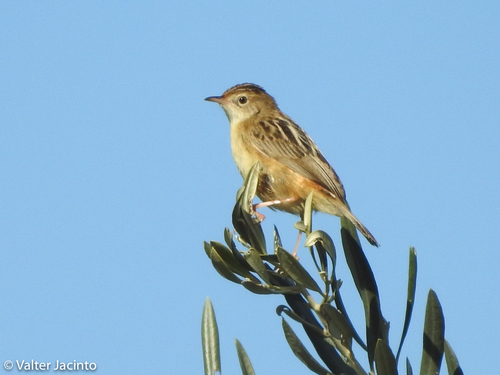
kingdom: Animalia
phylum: Chordata
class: Aves
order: Passeriformes
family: Cisticolidae
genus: Cisticola
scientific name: Cisticola juncidis
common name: Zitting cisticola
